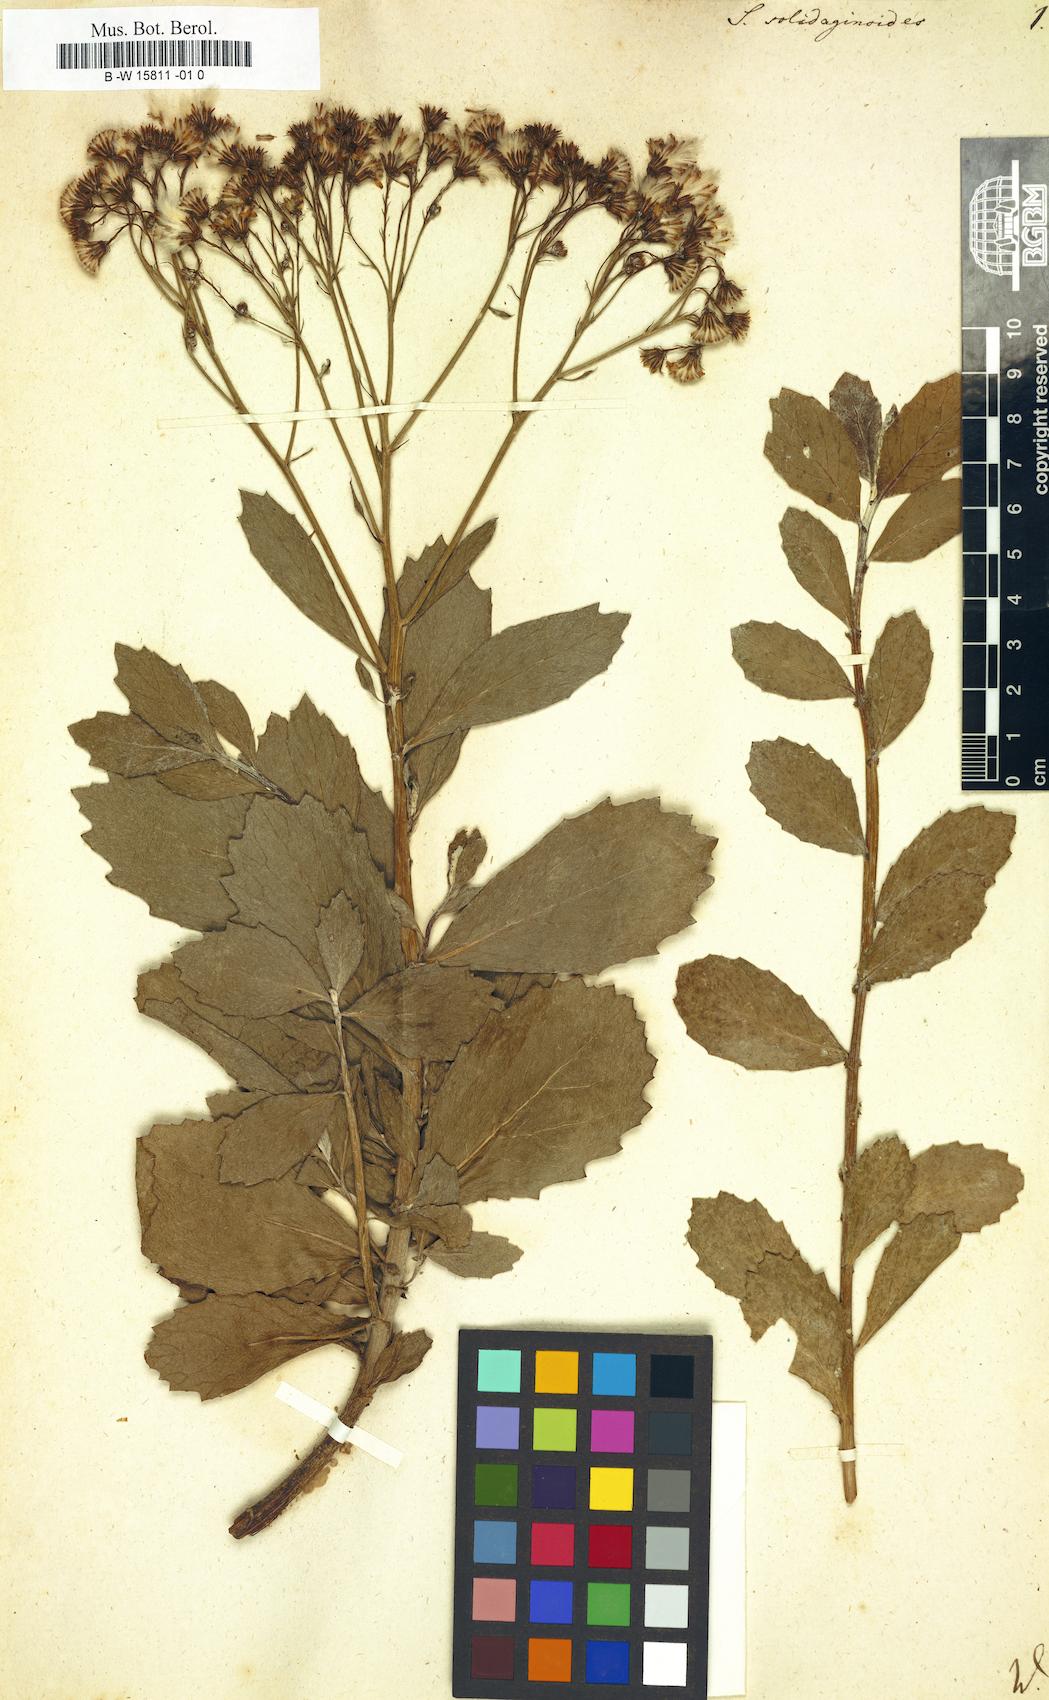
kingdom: Plantae
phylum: Tracheophyta
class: Magnoliopsida
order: Asterales
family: Asteraceae
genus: Senecio
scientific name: Senecio halimifolius
